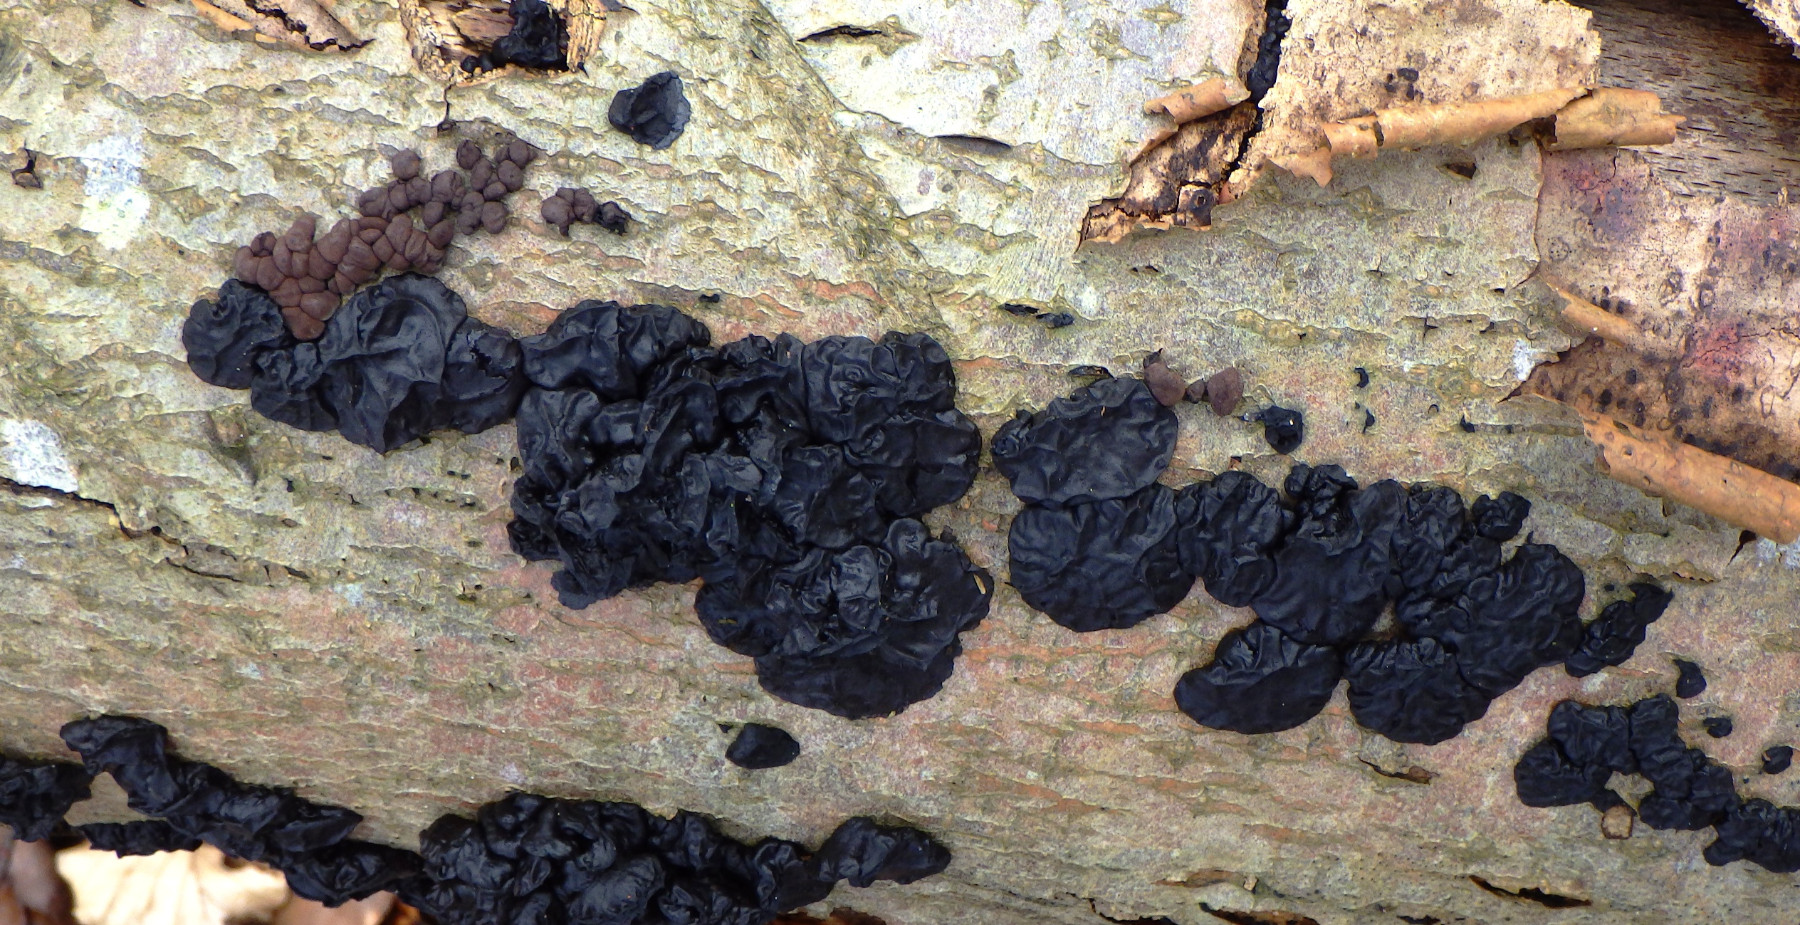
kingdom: Fungi
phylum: Basidiomycota
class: Agaricomycetes
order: Auriculariales
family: Auriculariaceae
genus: Exidia
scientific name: Exidia nigricans
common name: almindelig bævretop
